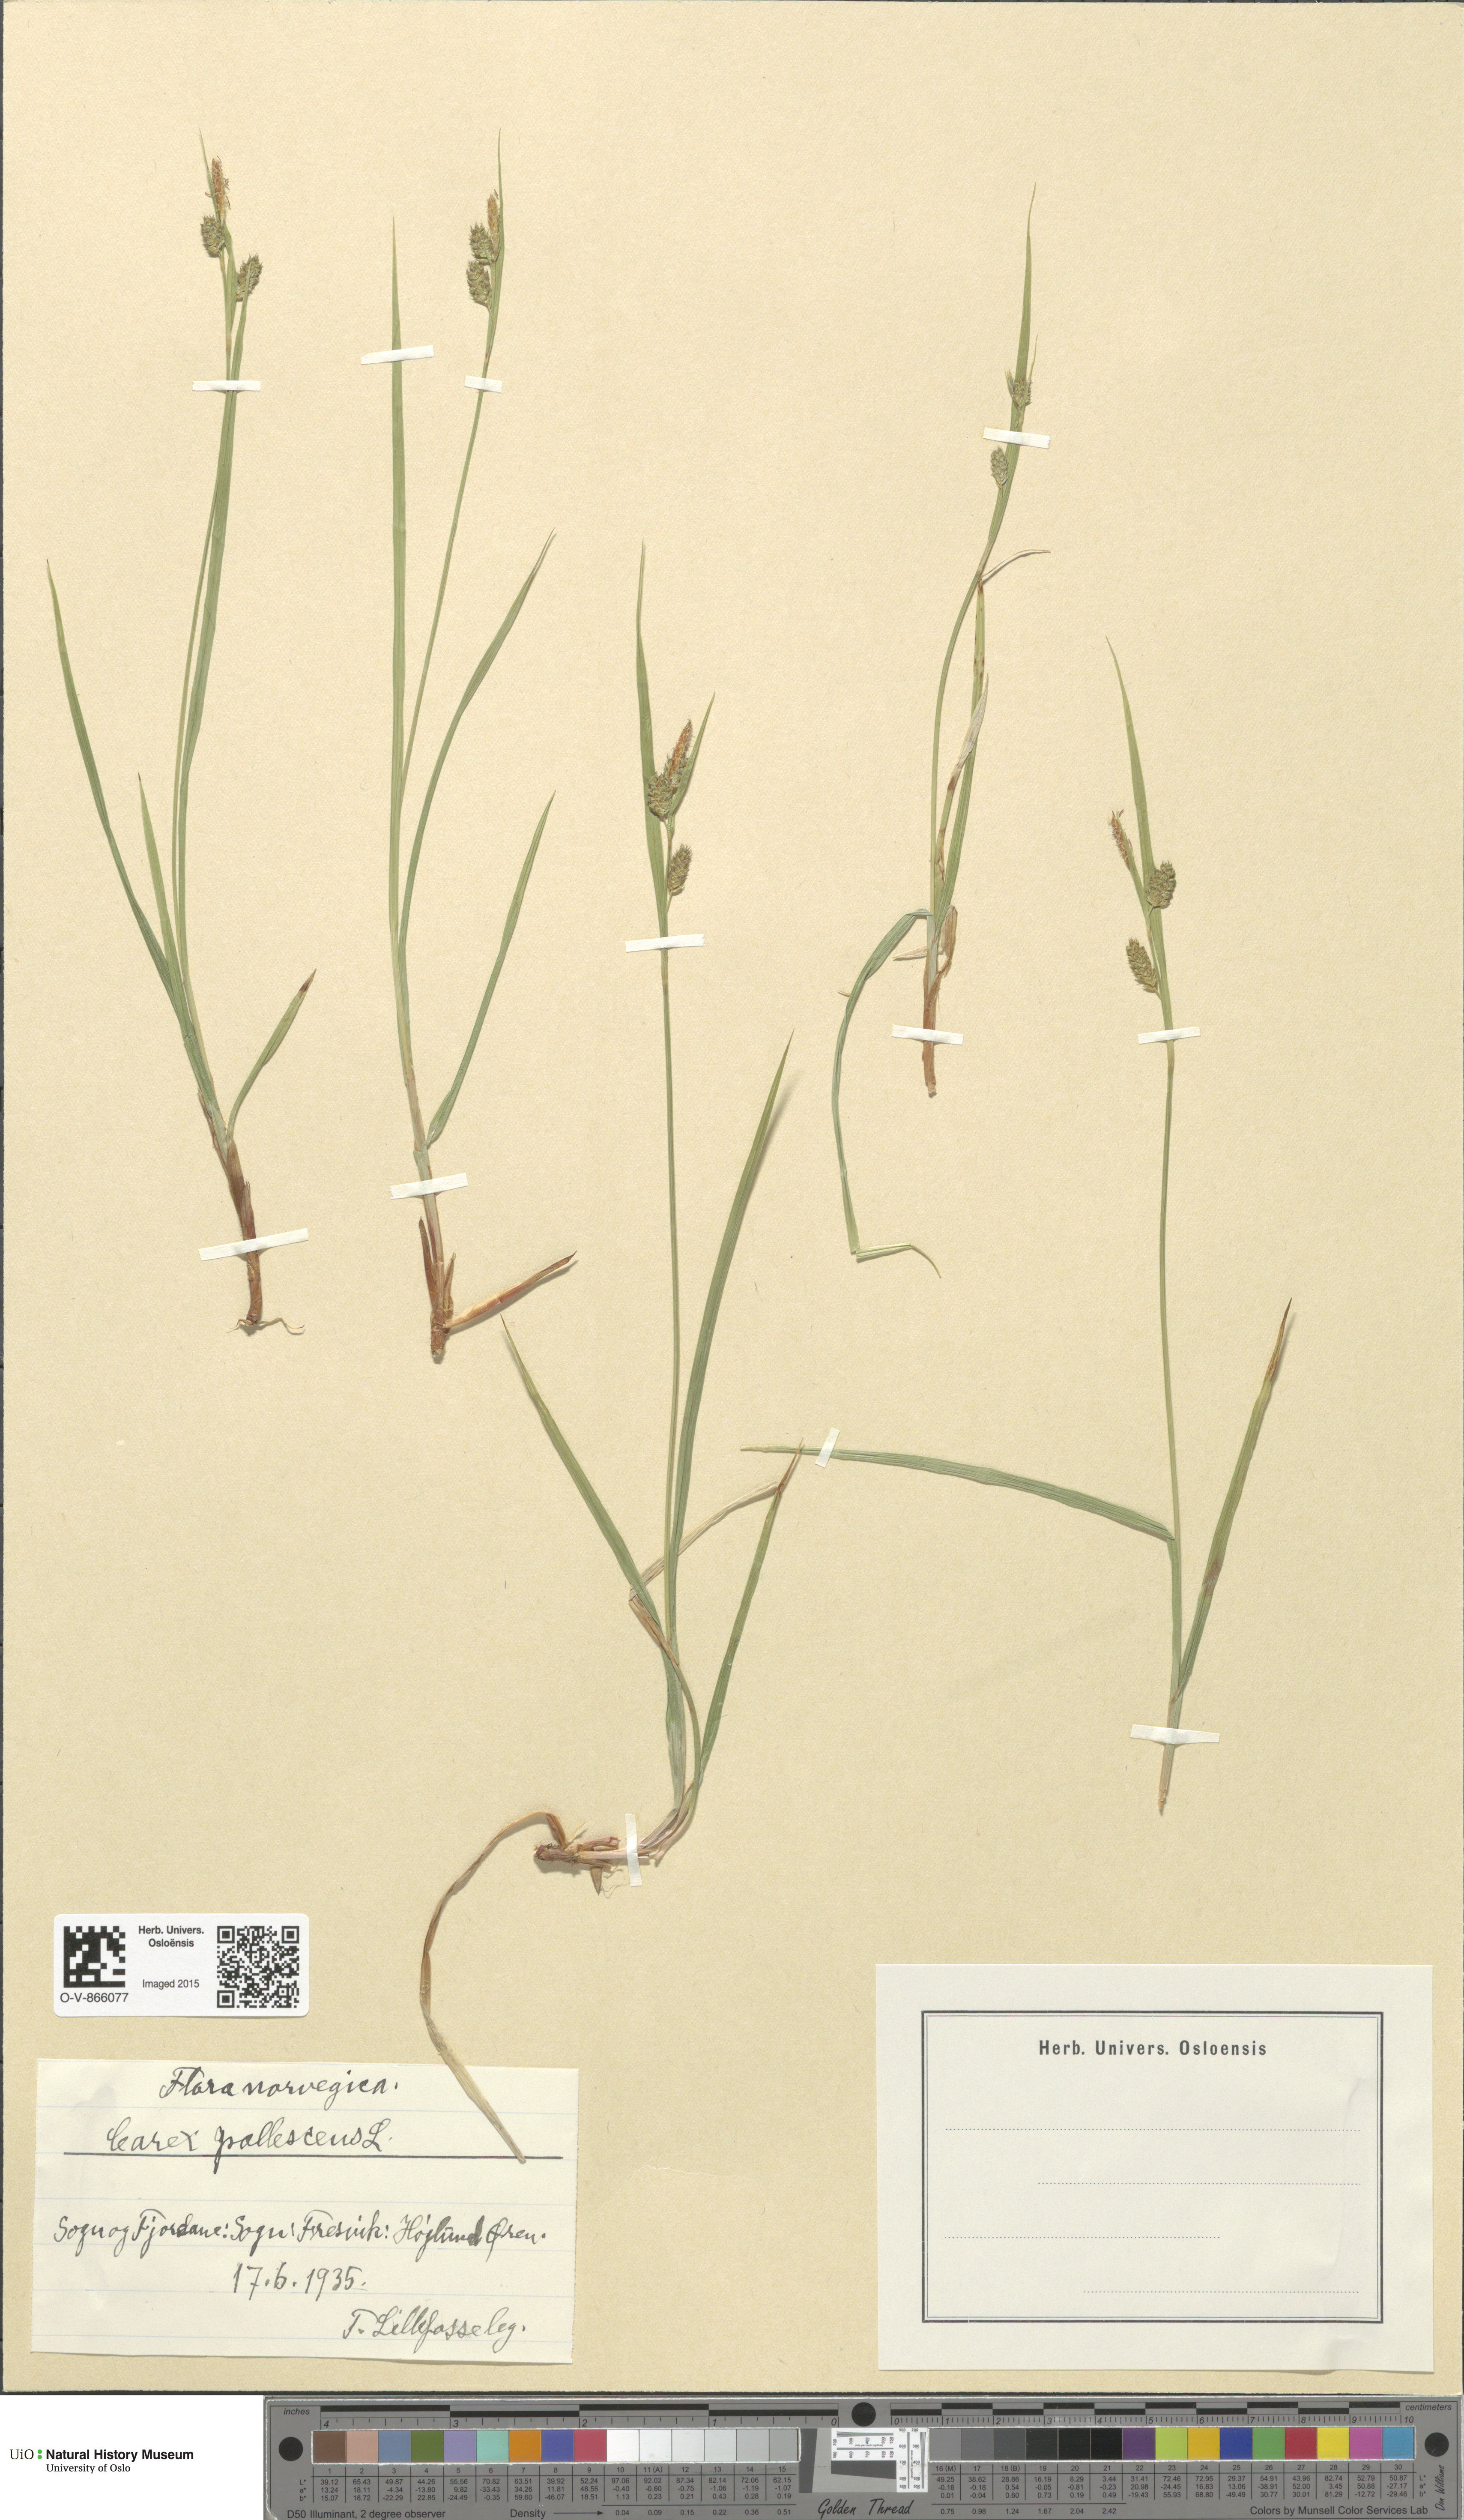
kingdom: Plantae
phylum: Tracheophyta
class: Liliopsida
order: Poales
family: Cyperaceae
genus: Carex
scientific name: Carex pallescens
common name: Pale sedge
